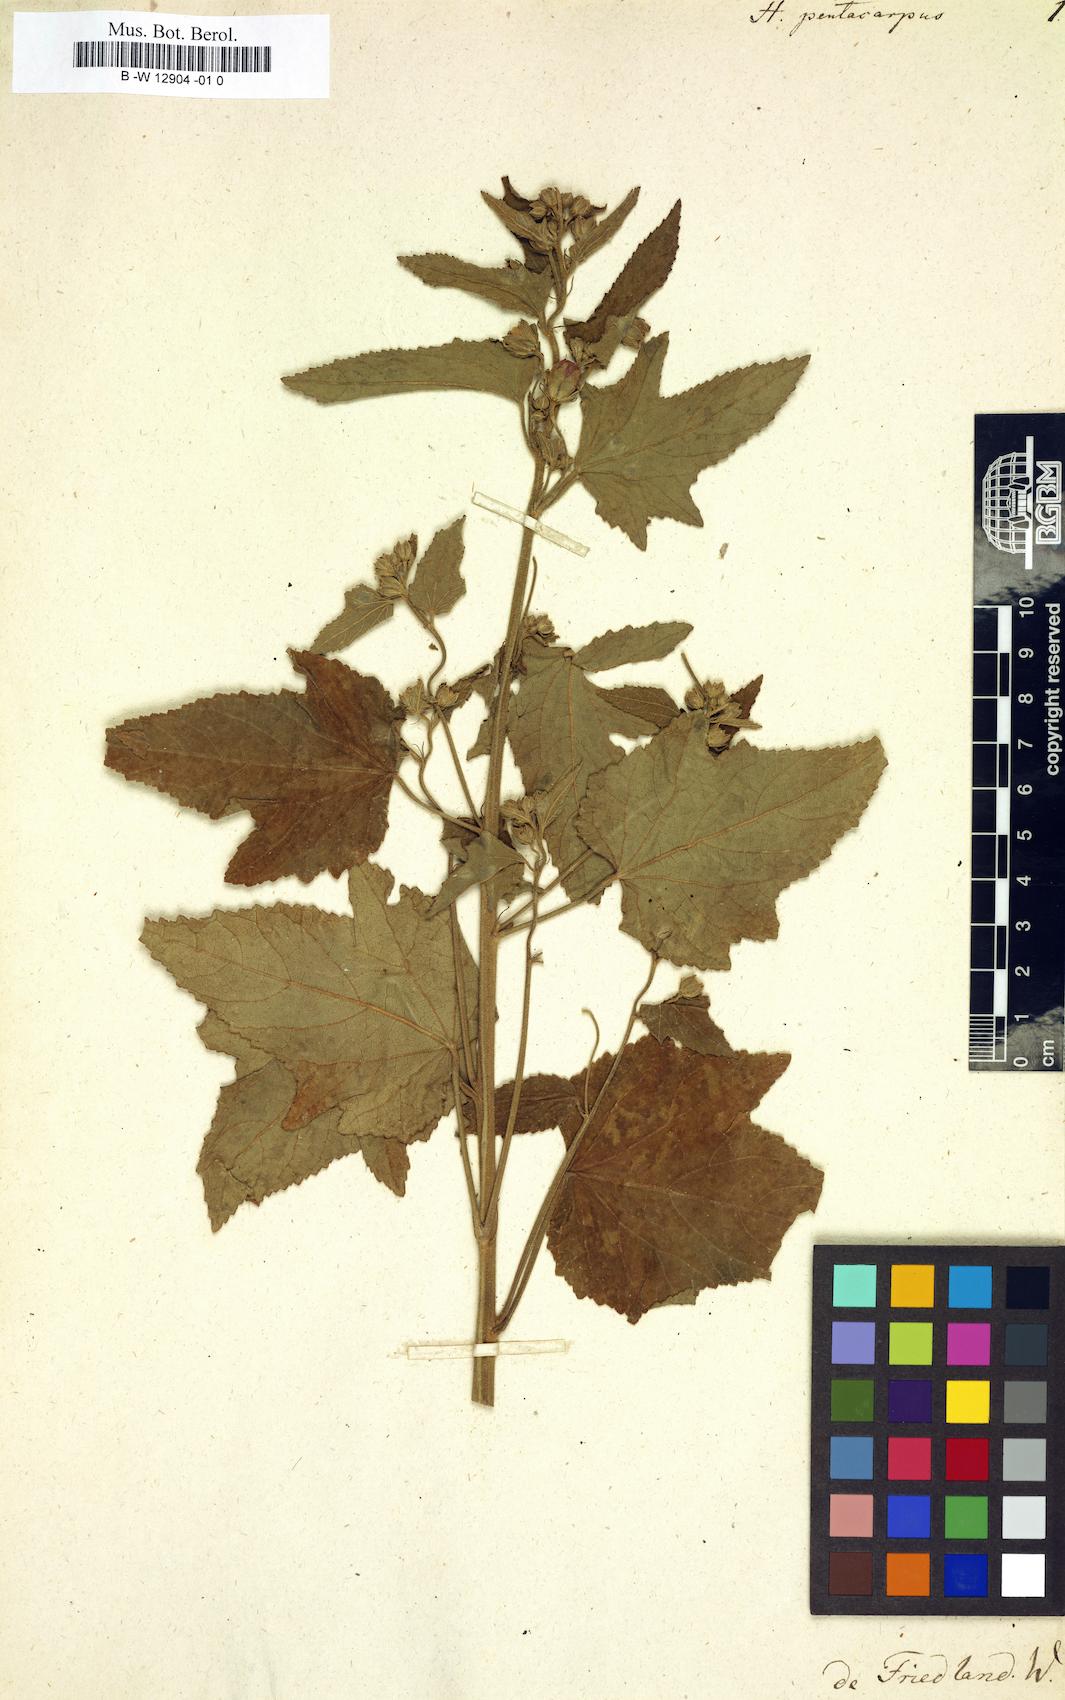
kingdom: Plantae
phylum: Tracheophyta
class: Magnoliopsida
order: Malvales
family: Malvaceae
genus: Kosteletzkya
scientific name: Kosteletzkya pentacarpos
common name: Virginia saltmarsh mallow
